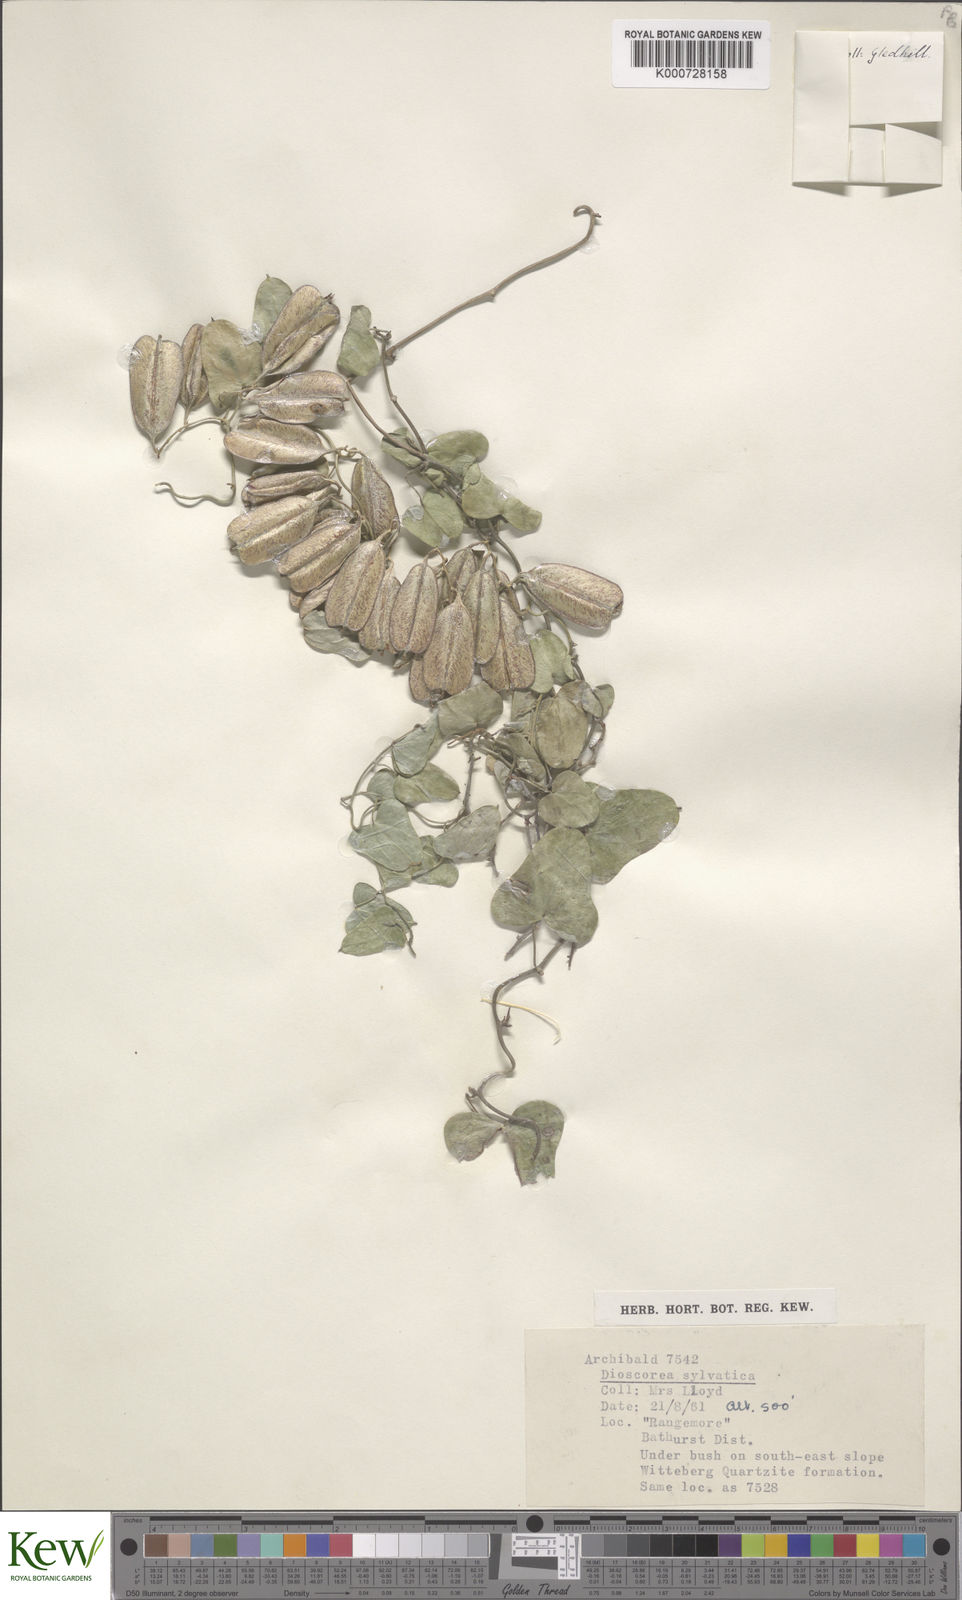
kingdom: Plantae
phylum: Tracheophyta
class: Liliopsida
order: Dioscoreales
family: Dioscoreaceae
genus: Dioscorea
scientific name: Dioscorea sylvatica
